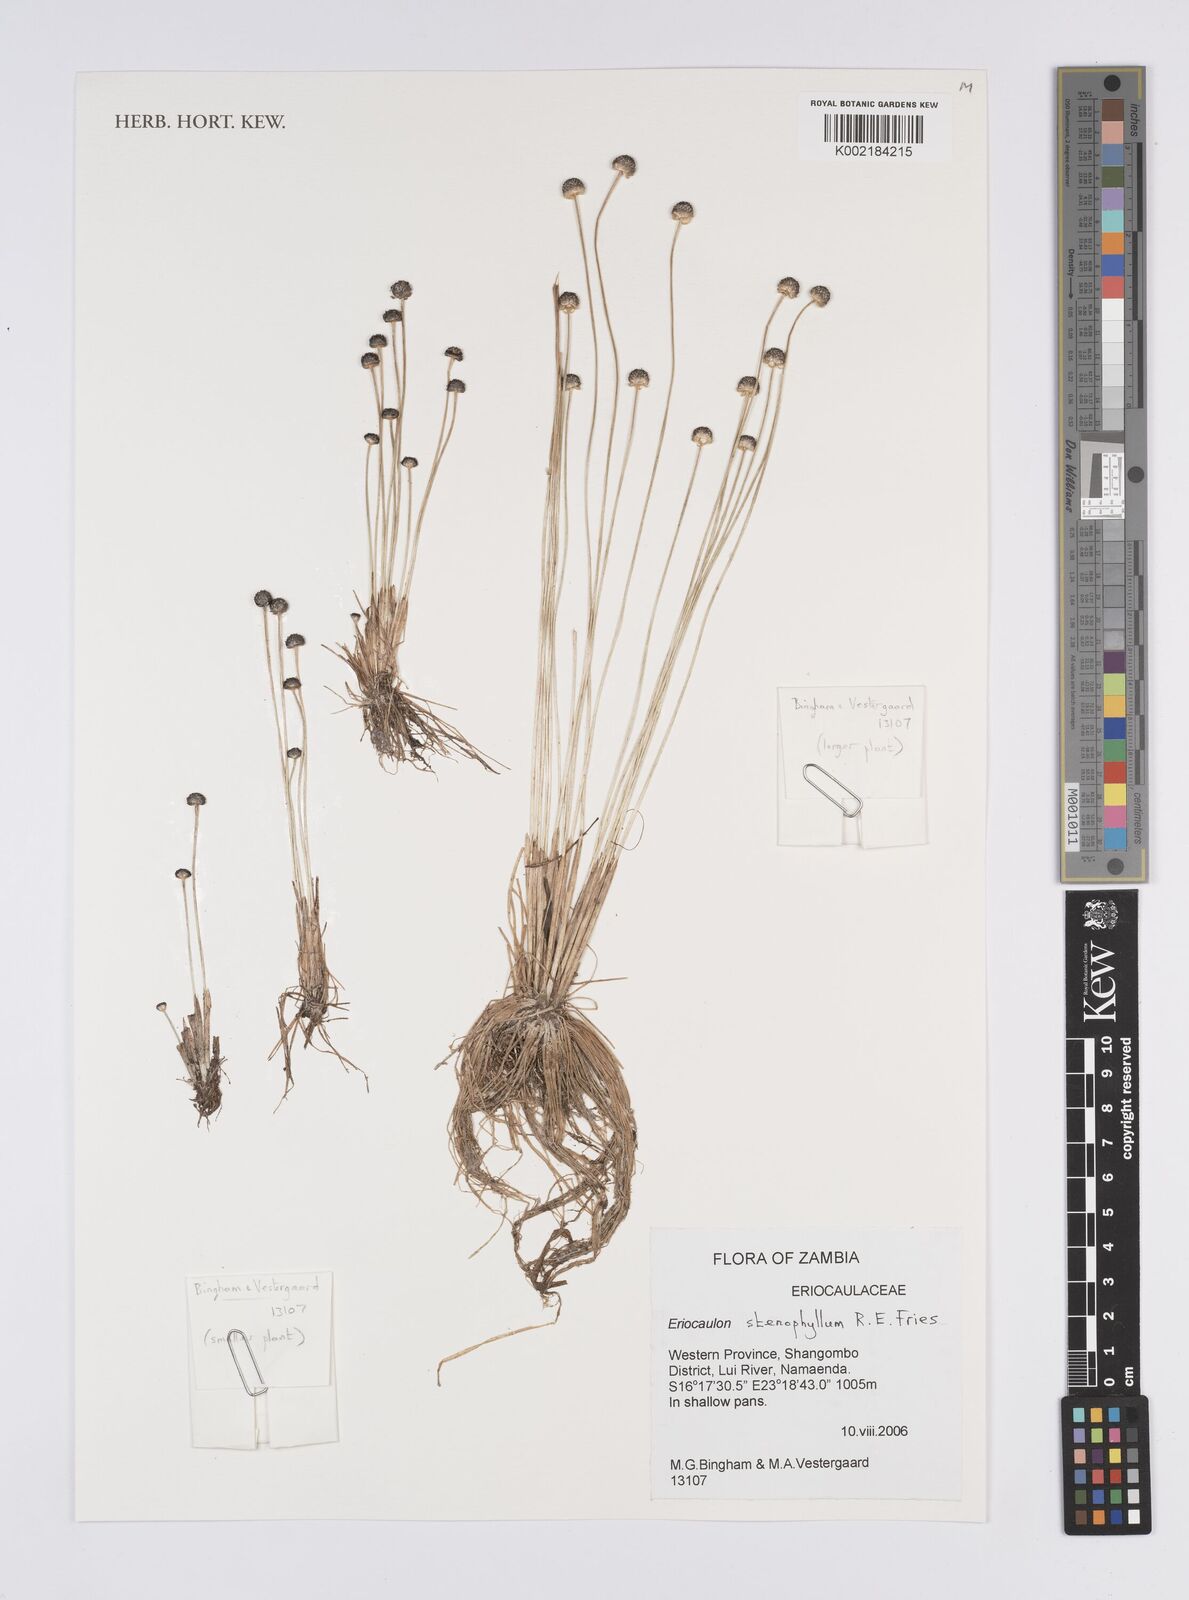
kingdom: Plantae
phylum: Tracheophyta
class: Liliopsida
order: Poales
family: Eriocaulaceae
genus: Eriocaulon
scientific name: Eriocaulon stenophyllum
